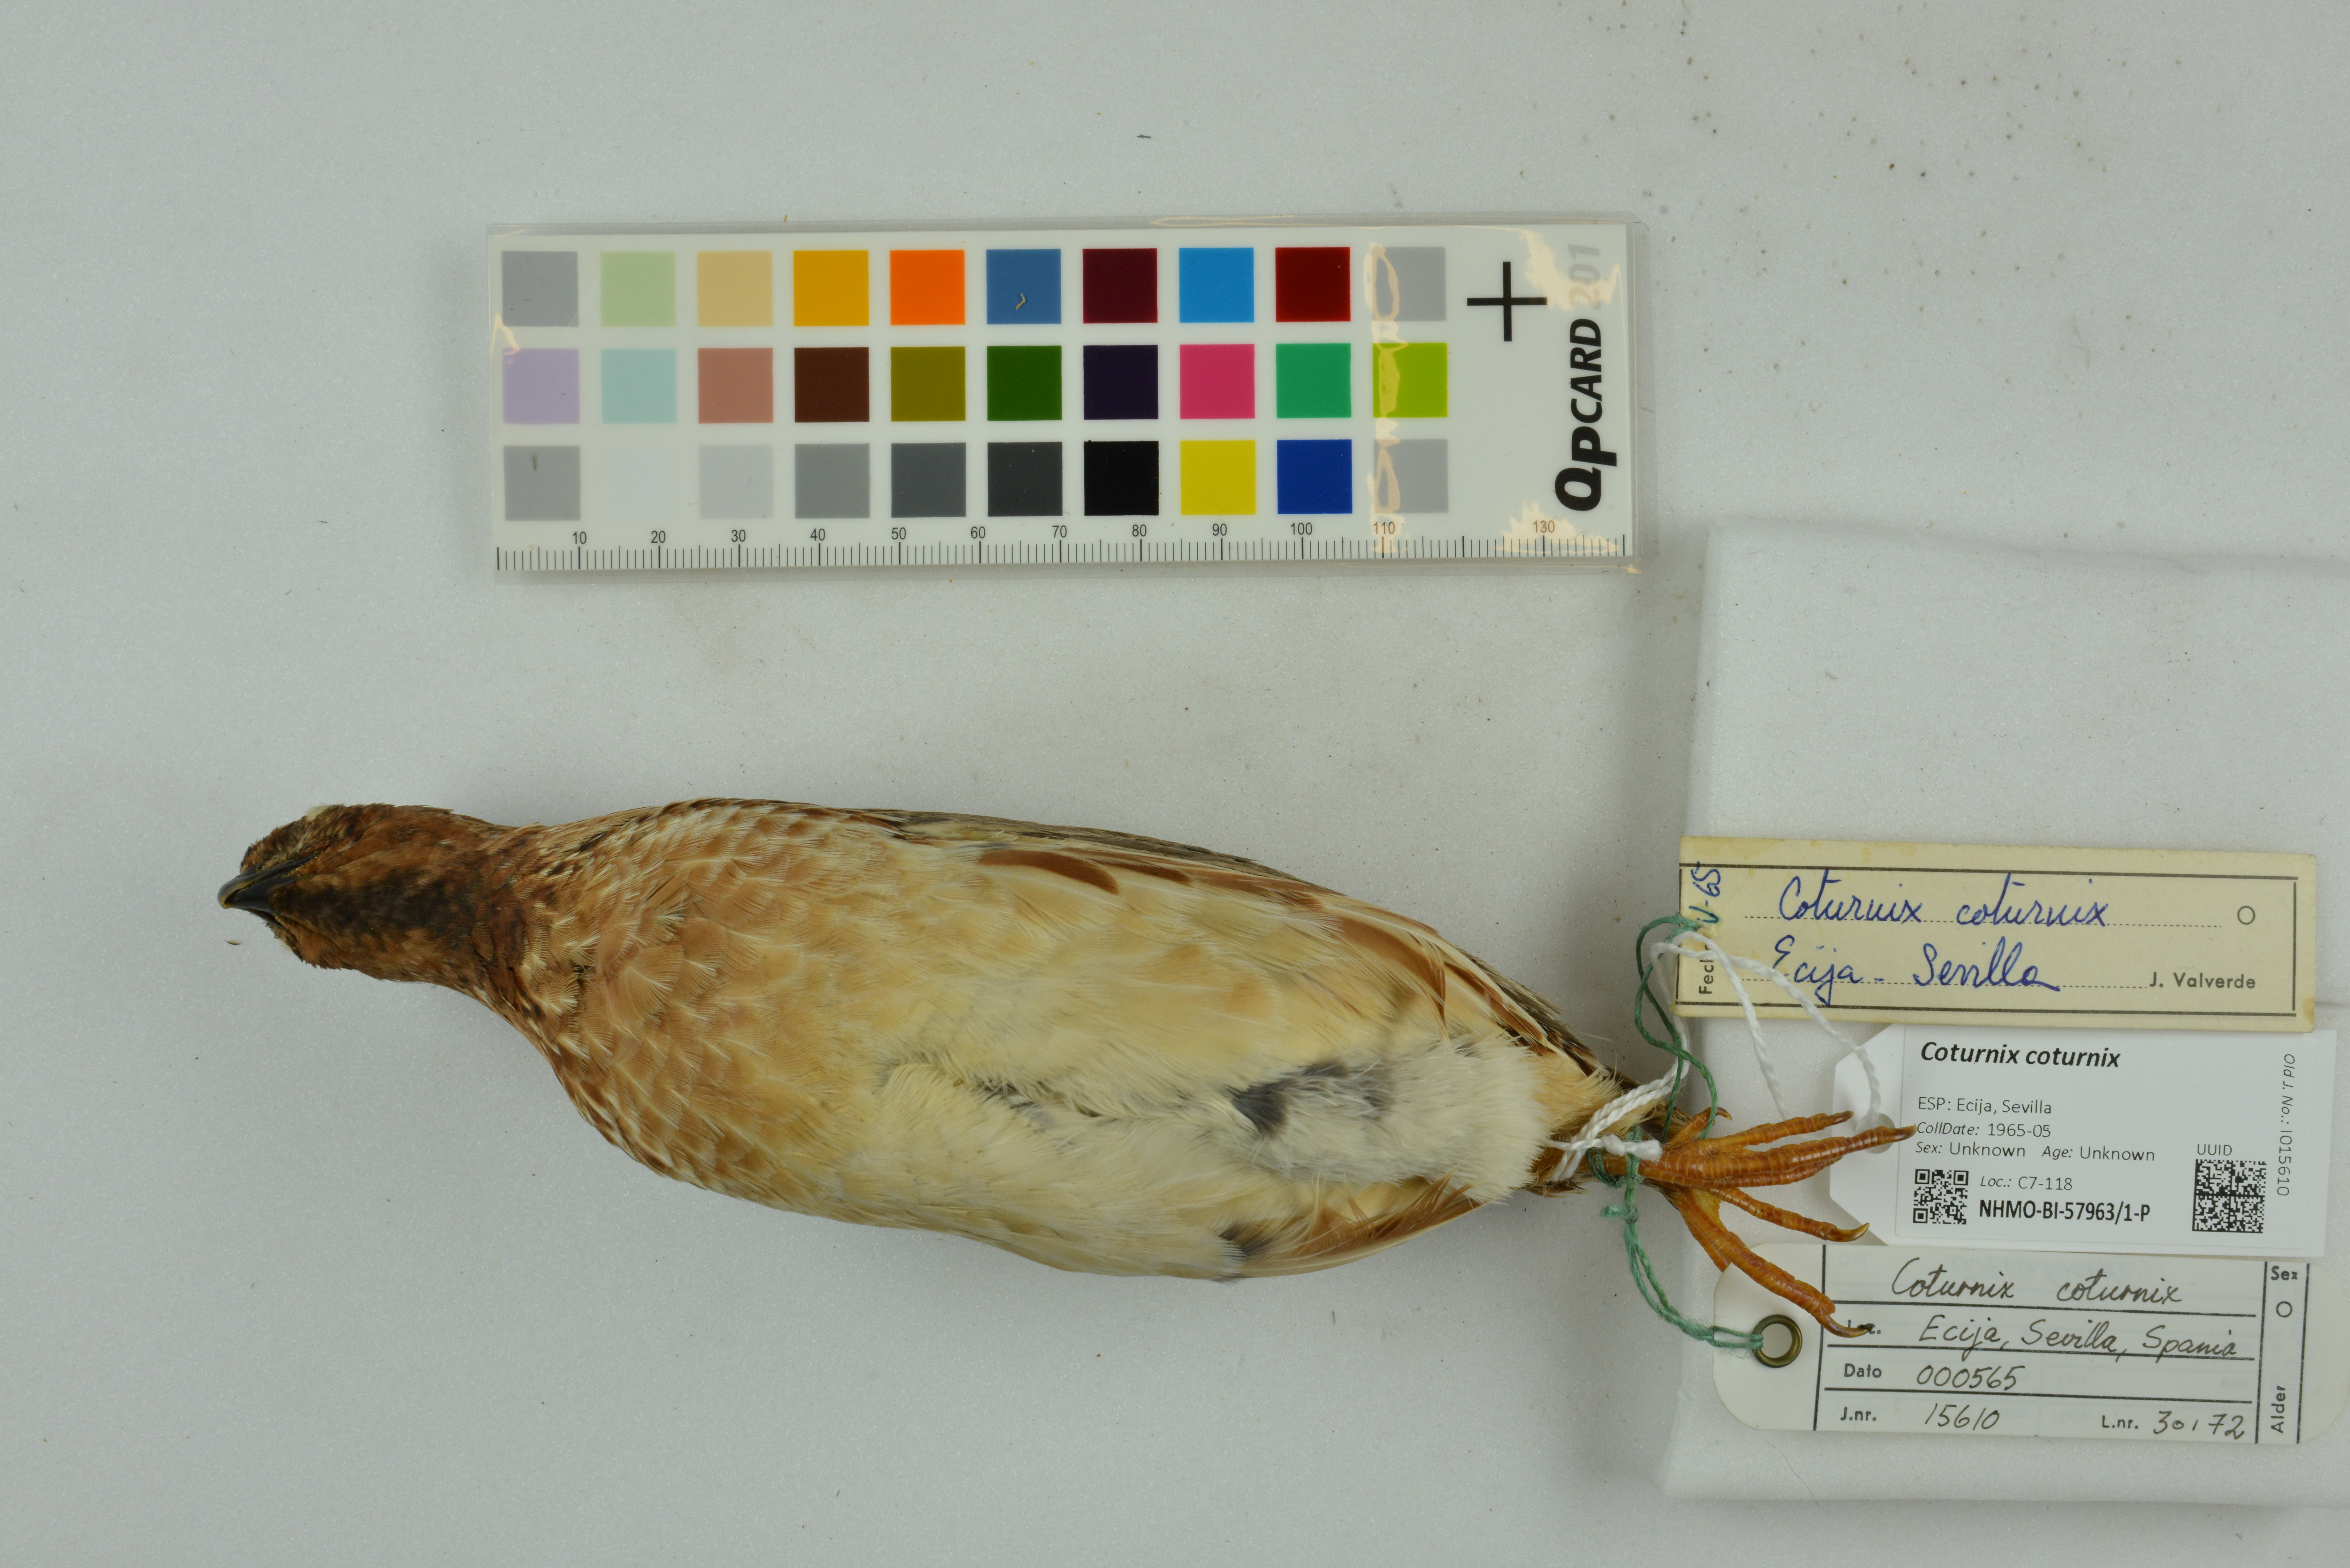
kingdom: Animalia
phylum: Chordata
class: Aves
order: Galliformes
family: Phasianidae
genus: Coturnix
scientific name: Coturnix coturnix
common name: Common quail
